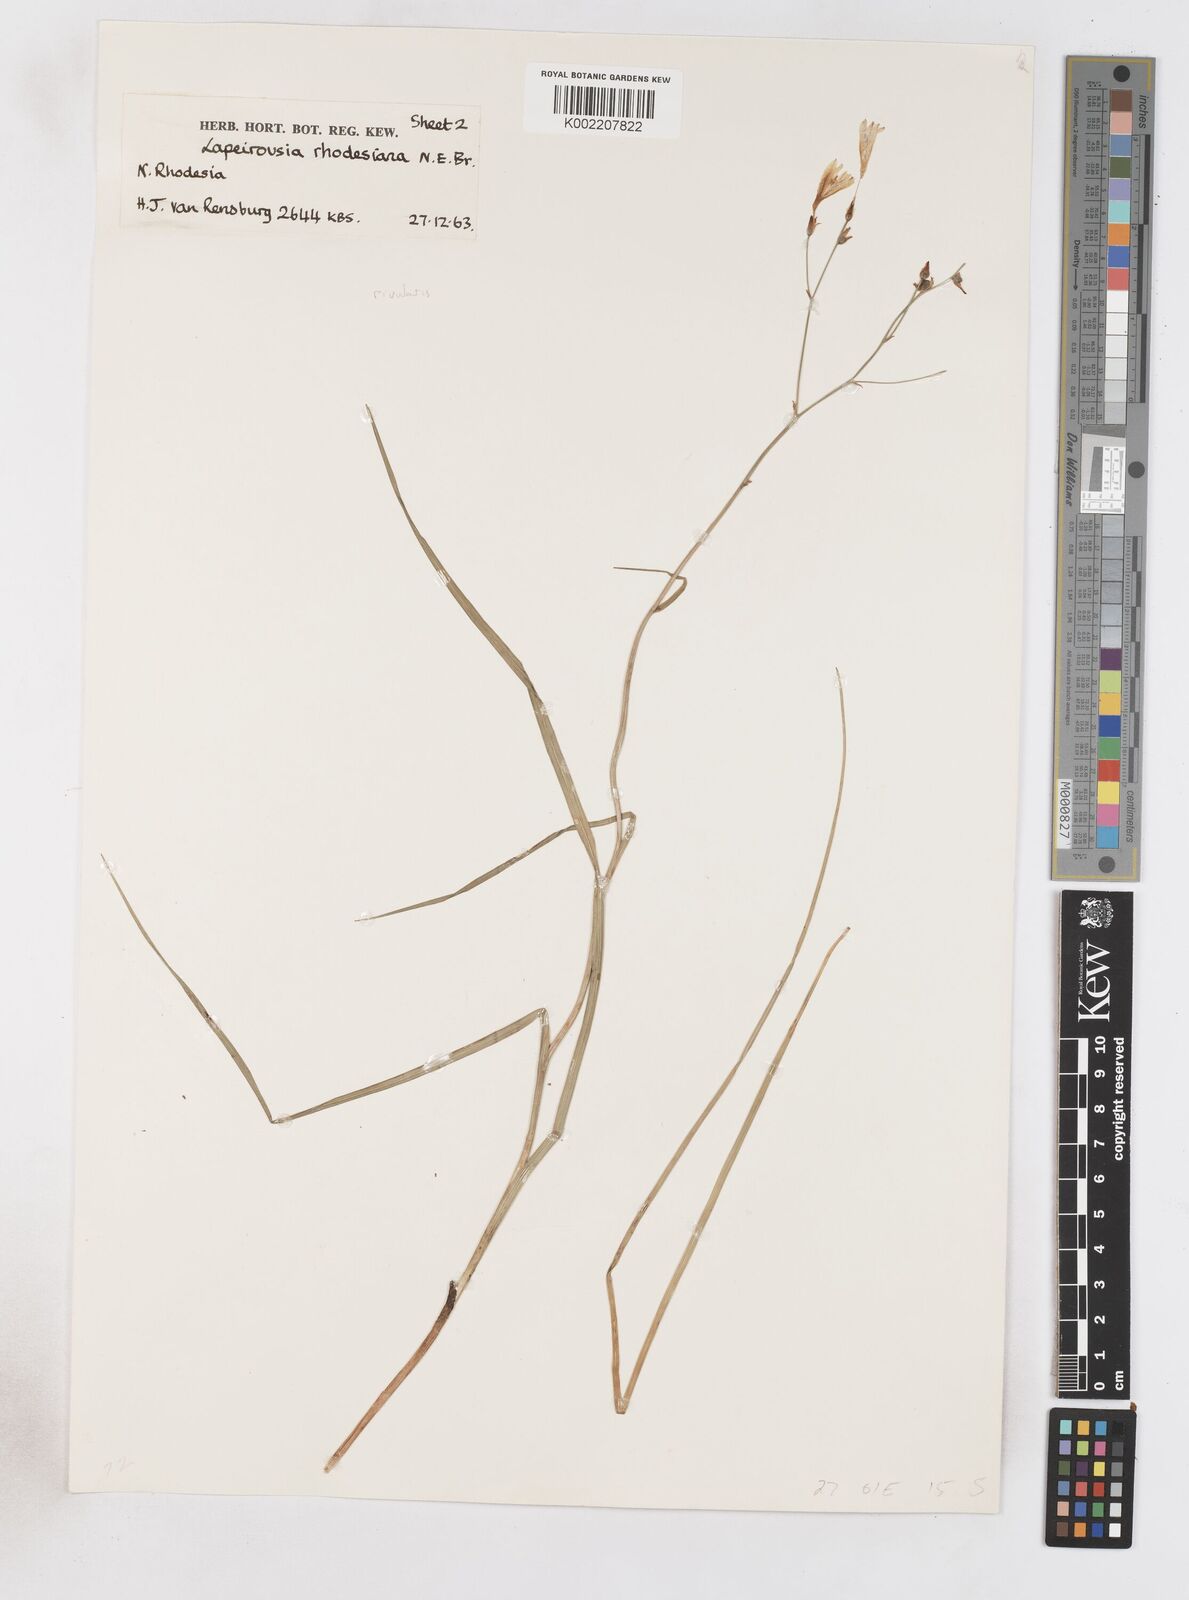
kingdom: Plantae
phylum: Tracheophyta
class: Liliopsida
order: Asparagales
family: Iridaceae
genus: Afrosolen
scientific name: Afrosolen rivularis
